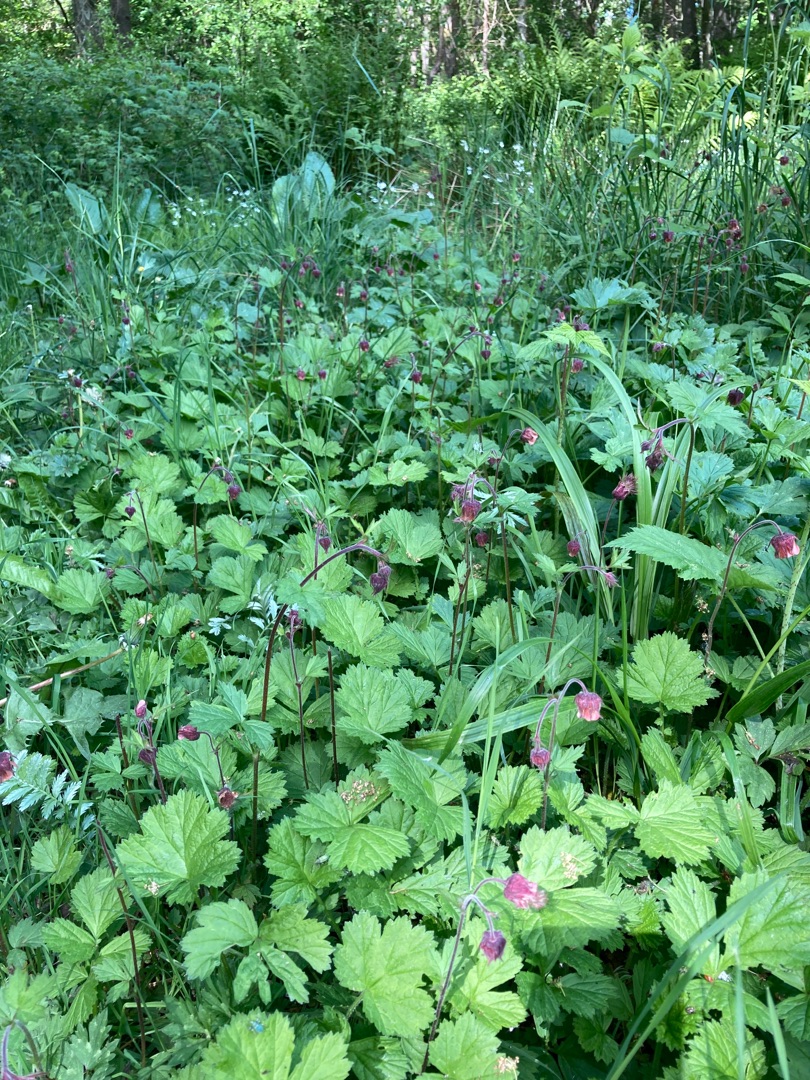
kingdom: Plantae
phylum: Tracheophyta
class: Magnoliopsida
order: Rosales
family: Rosaceae
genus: Geum
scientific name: Geum rivale
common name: Eng-nellikerod
